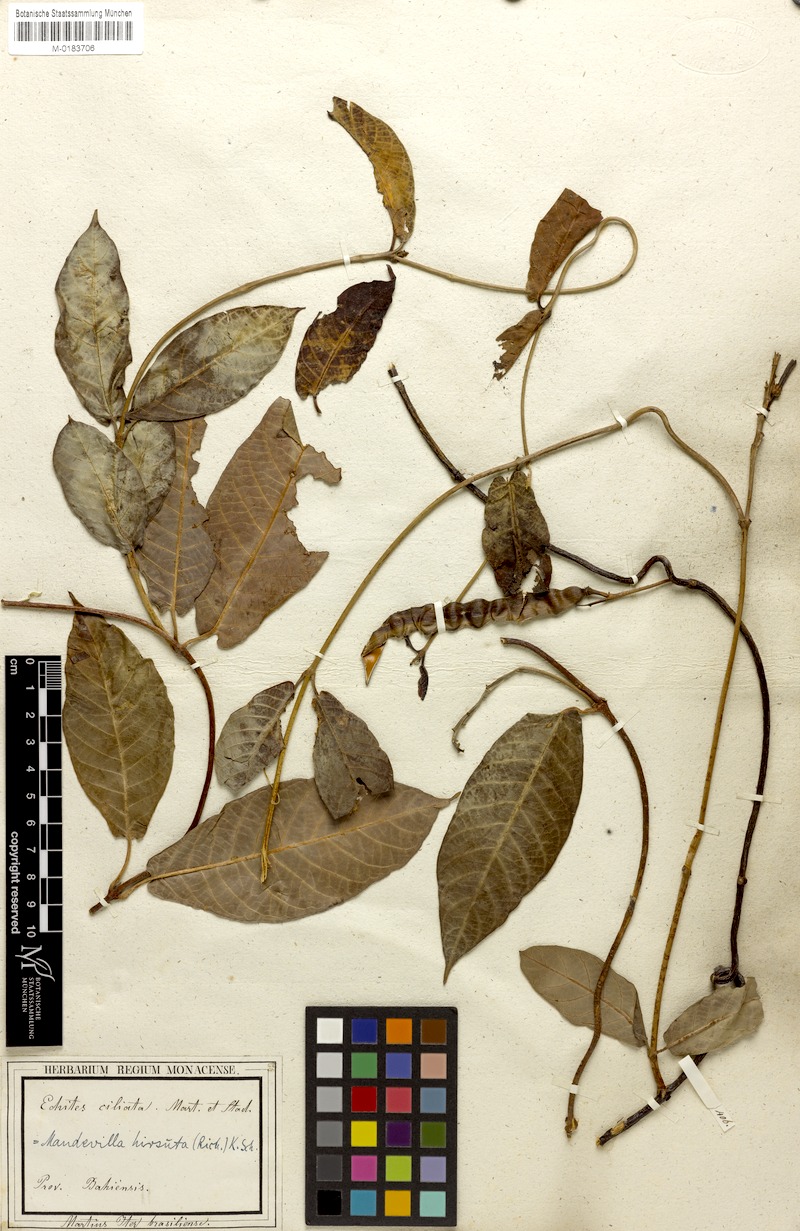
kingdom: Plantae
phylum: Tracheophyta
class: Magnoliopsida
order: Gentianales
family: Apocynaceae
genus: Mandevilla
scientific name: Mandevilla hirsuta
